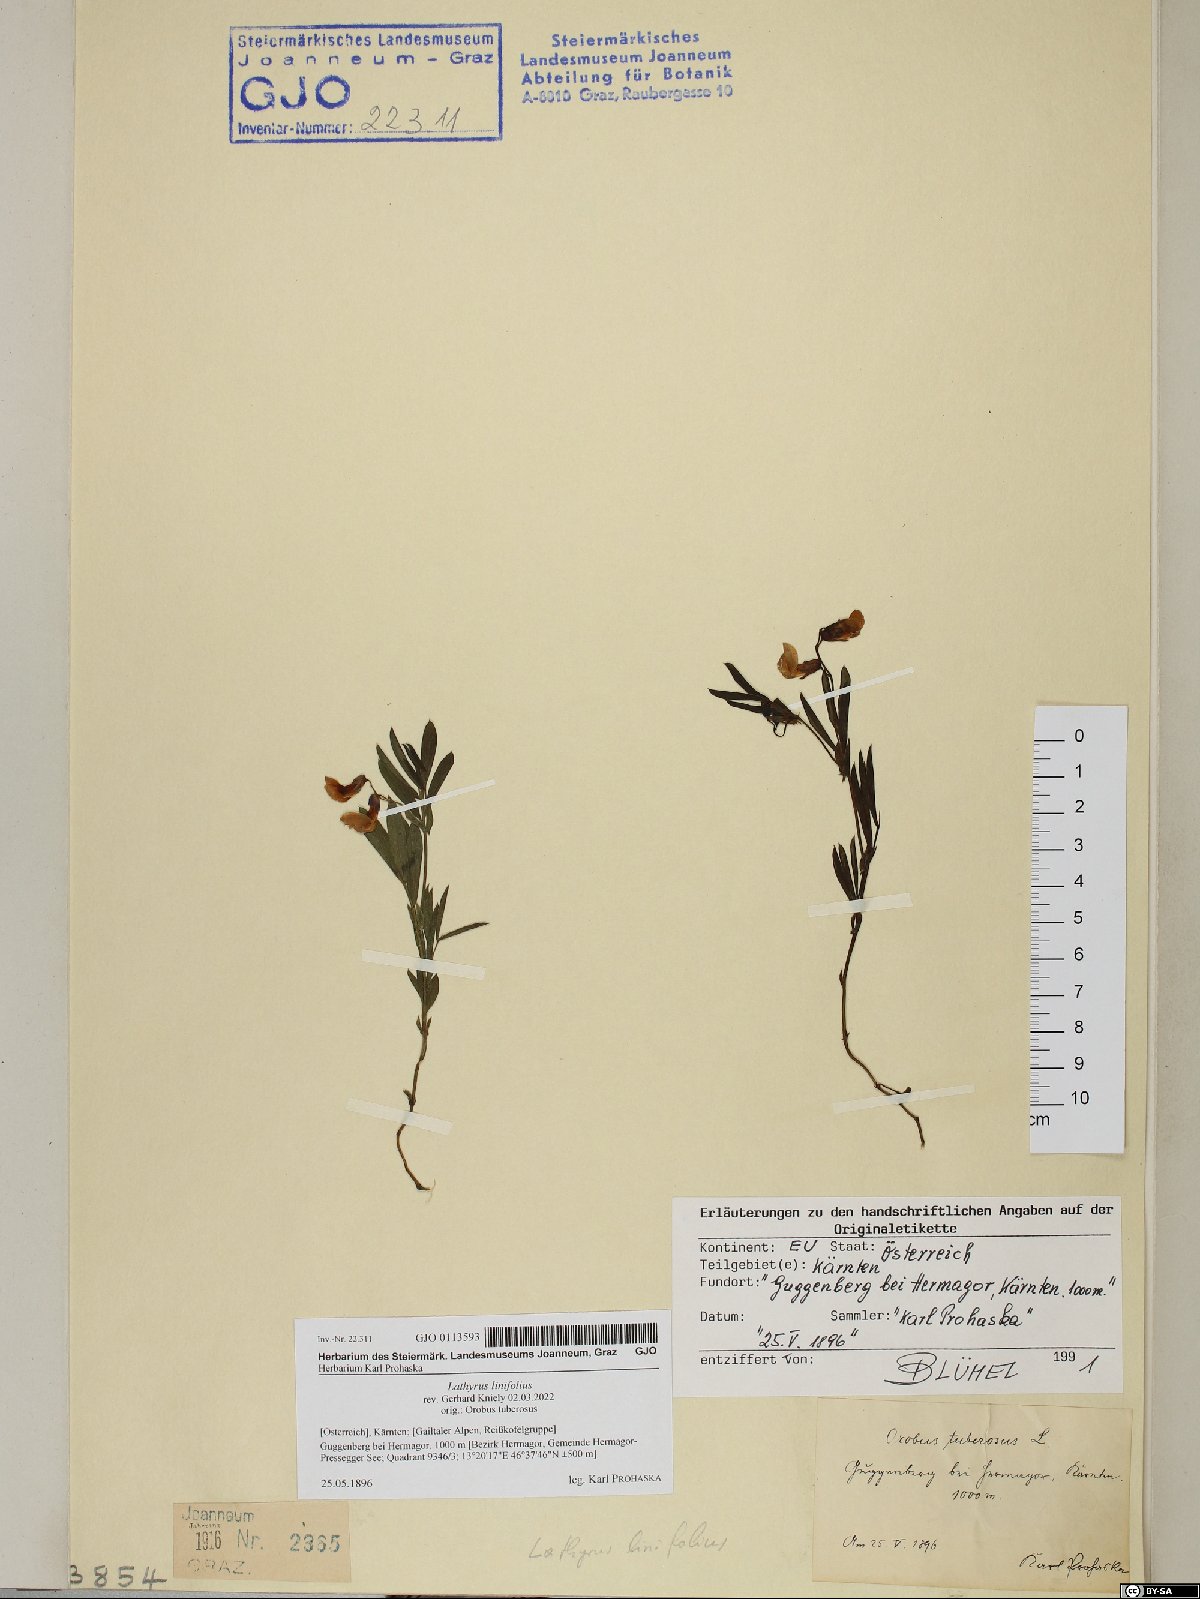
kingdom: Plantae
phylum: Tracheophyta
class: Magnoliopsida
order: Fabales
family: Fabaceae
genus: Lathyrus
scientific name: Lathyrus linifolius
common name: Bitter-vetch
